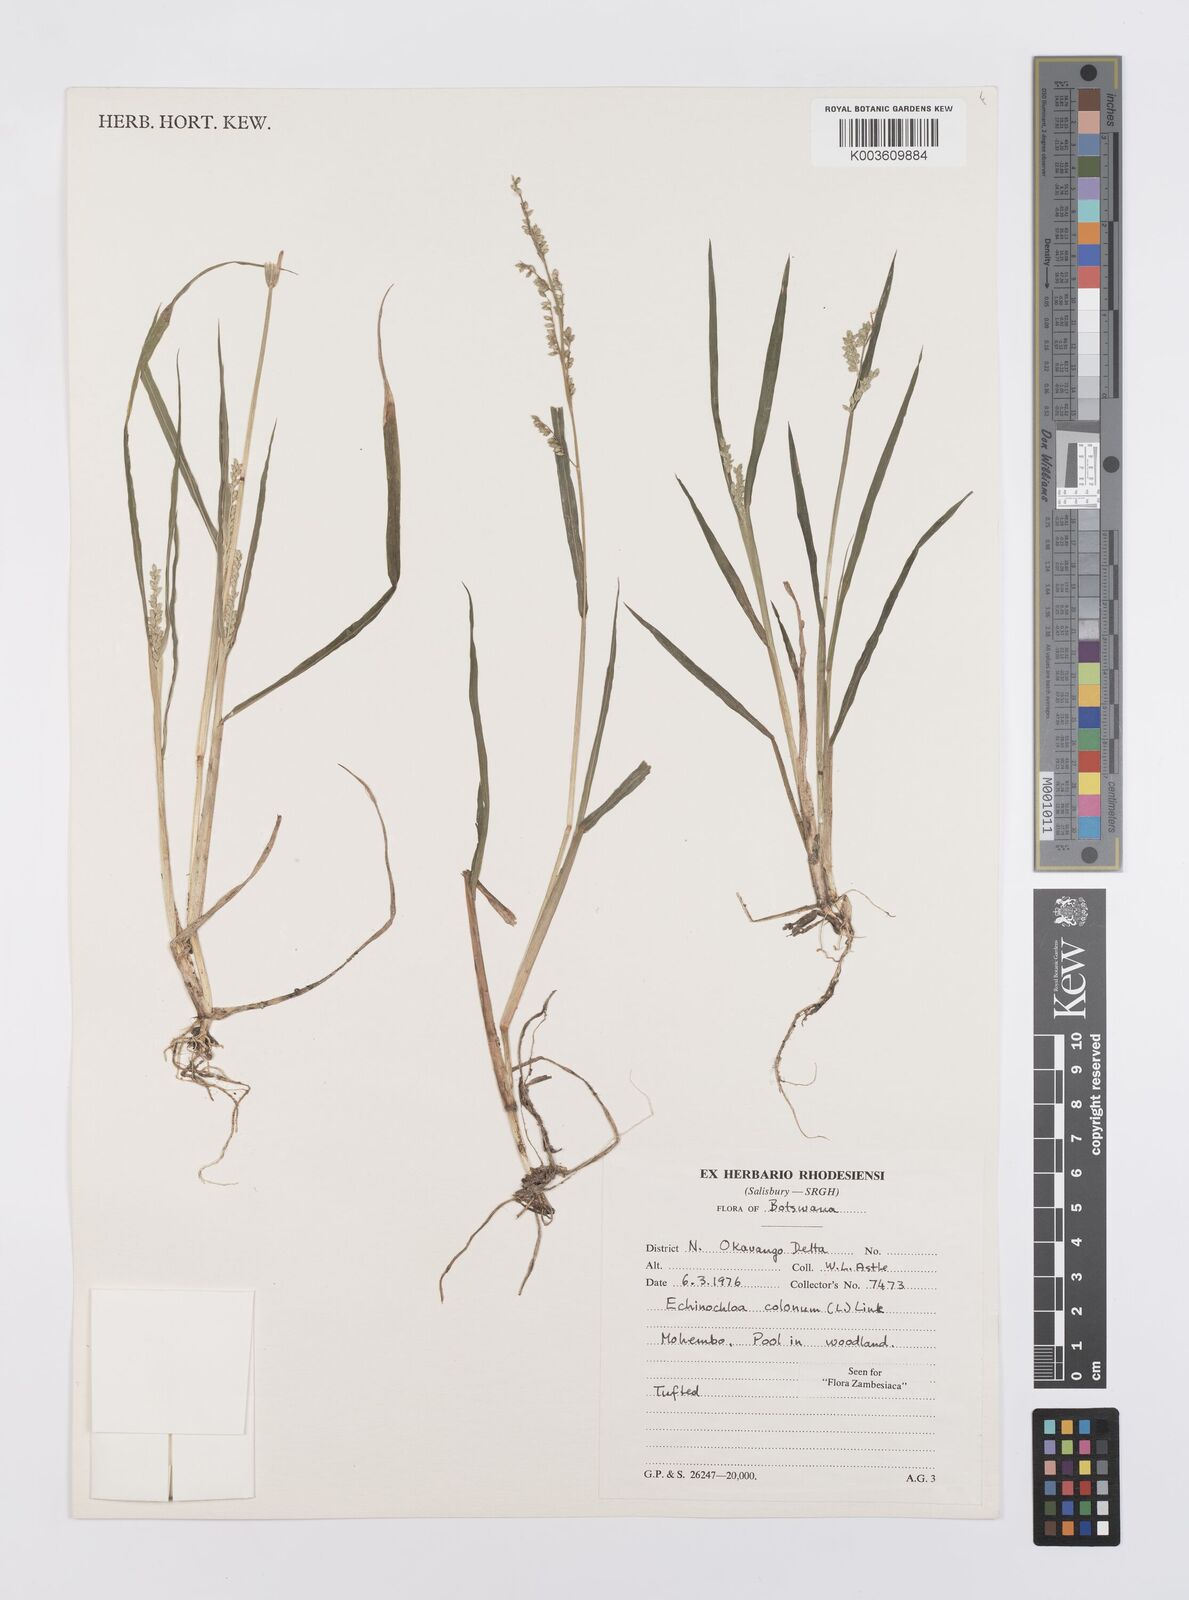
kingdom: Plantae
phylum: Tracheophyta
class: Liliopsida
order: Poales
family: Poaceae
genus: Echinochloa
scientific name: Echinochloa colonum
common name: Jungle rice
